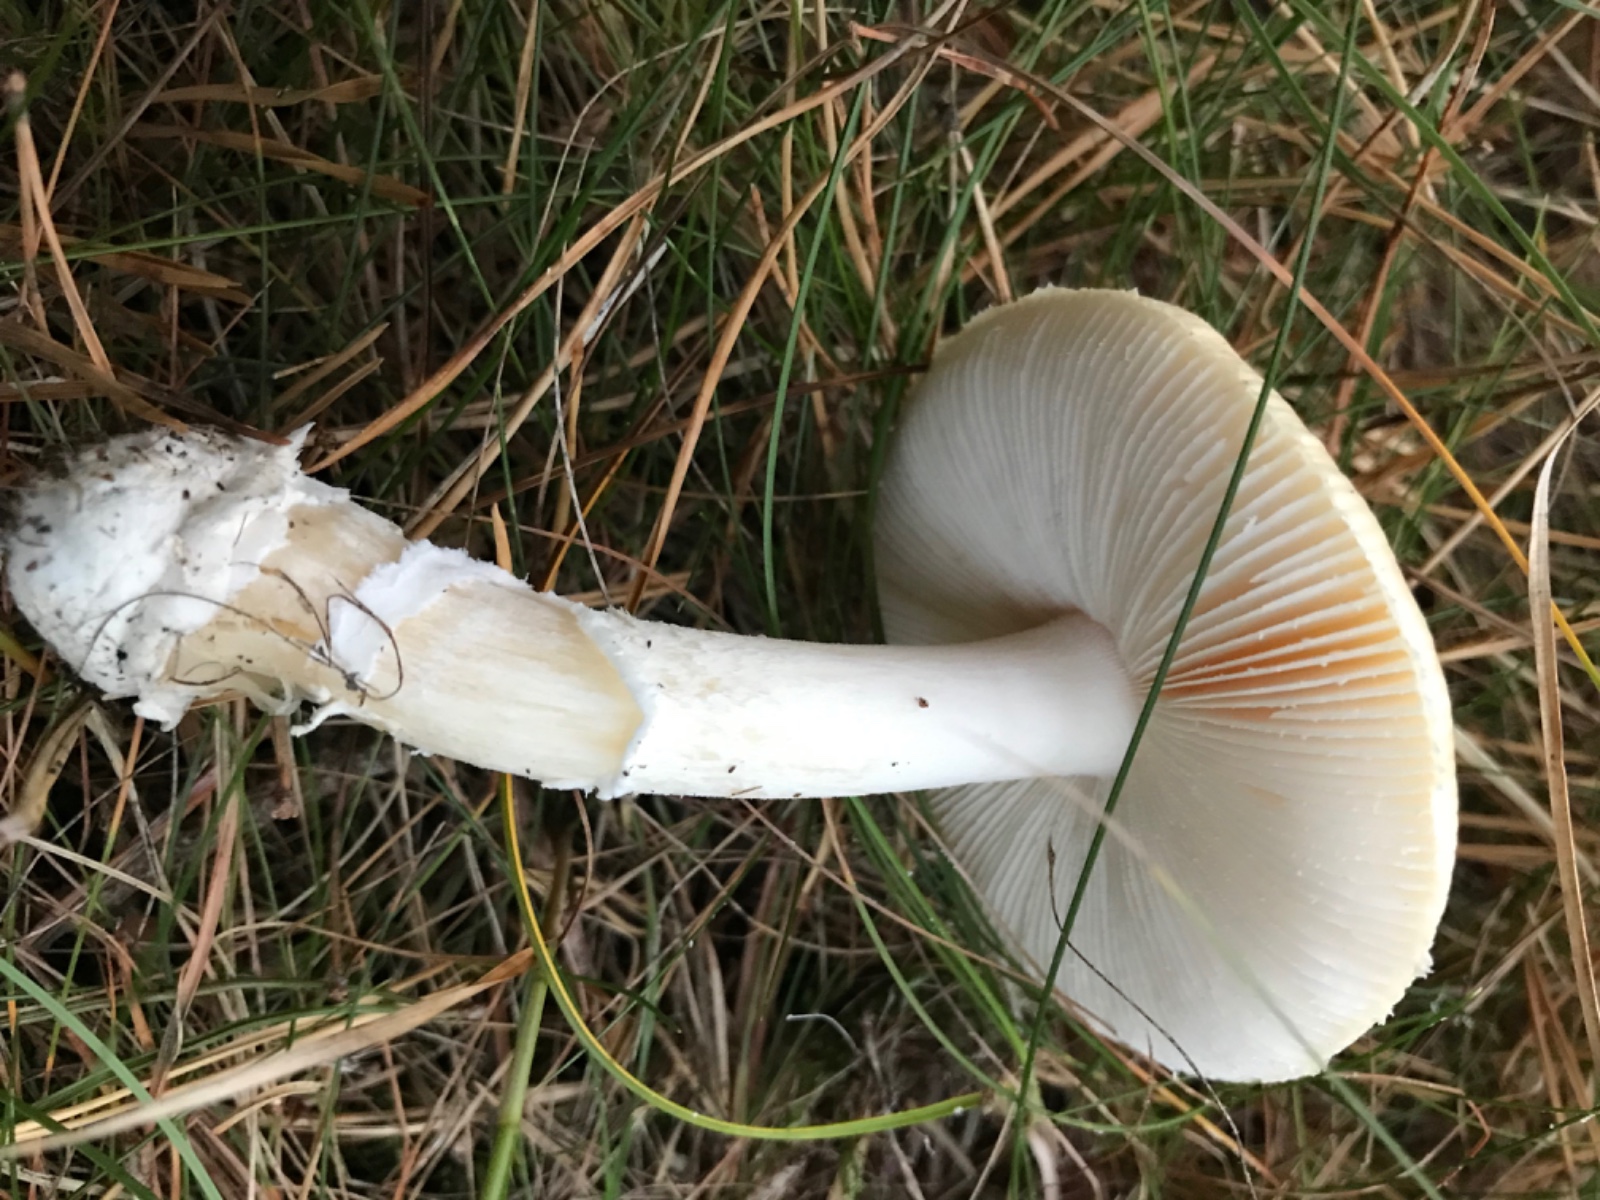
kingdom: Fungi
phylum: Basidiomycota
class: Agaricomycetes
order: Agaricales
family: Amanitaceae
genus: Amanita
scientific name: Amanita gemmata
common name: okkergul fluesvamp
